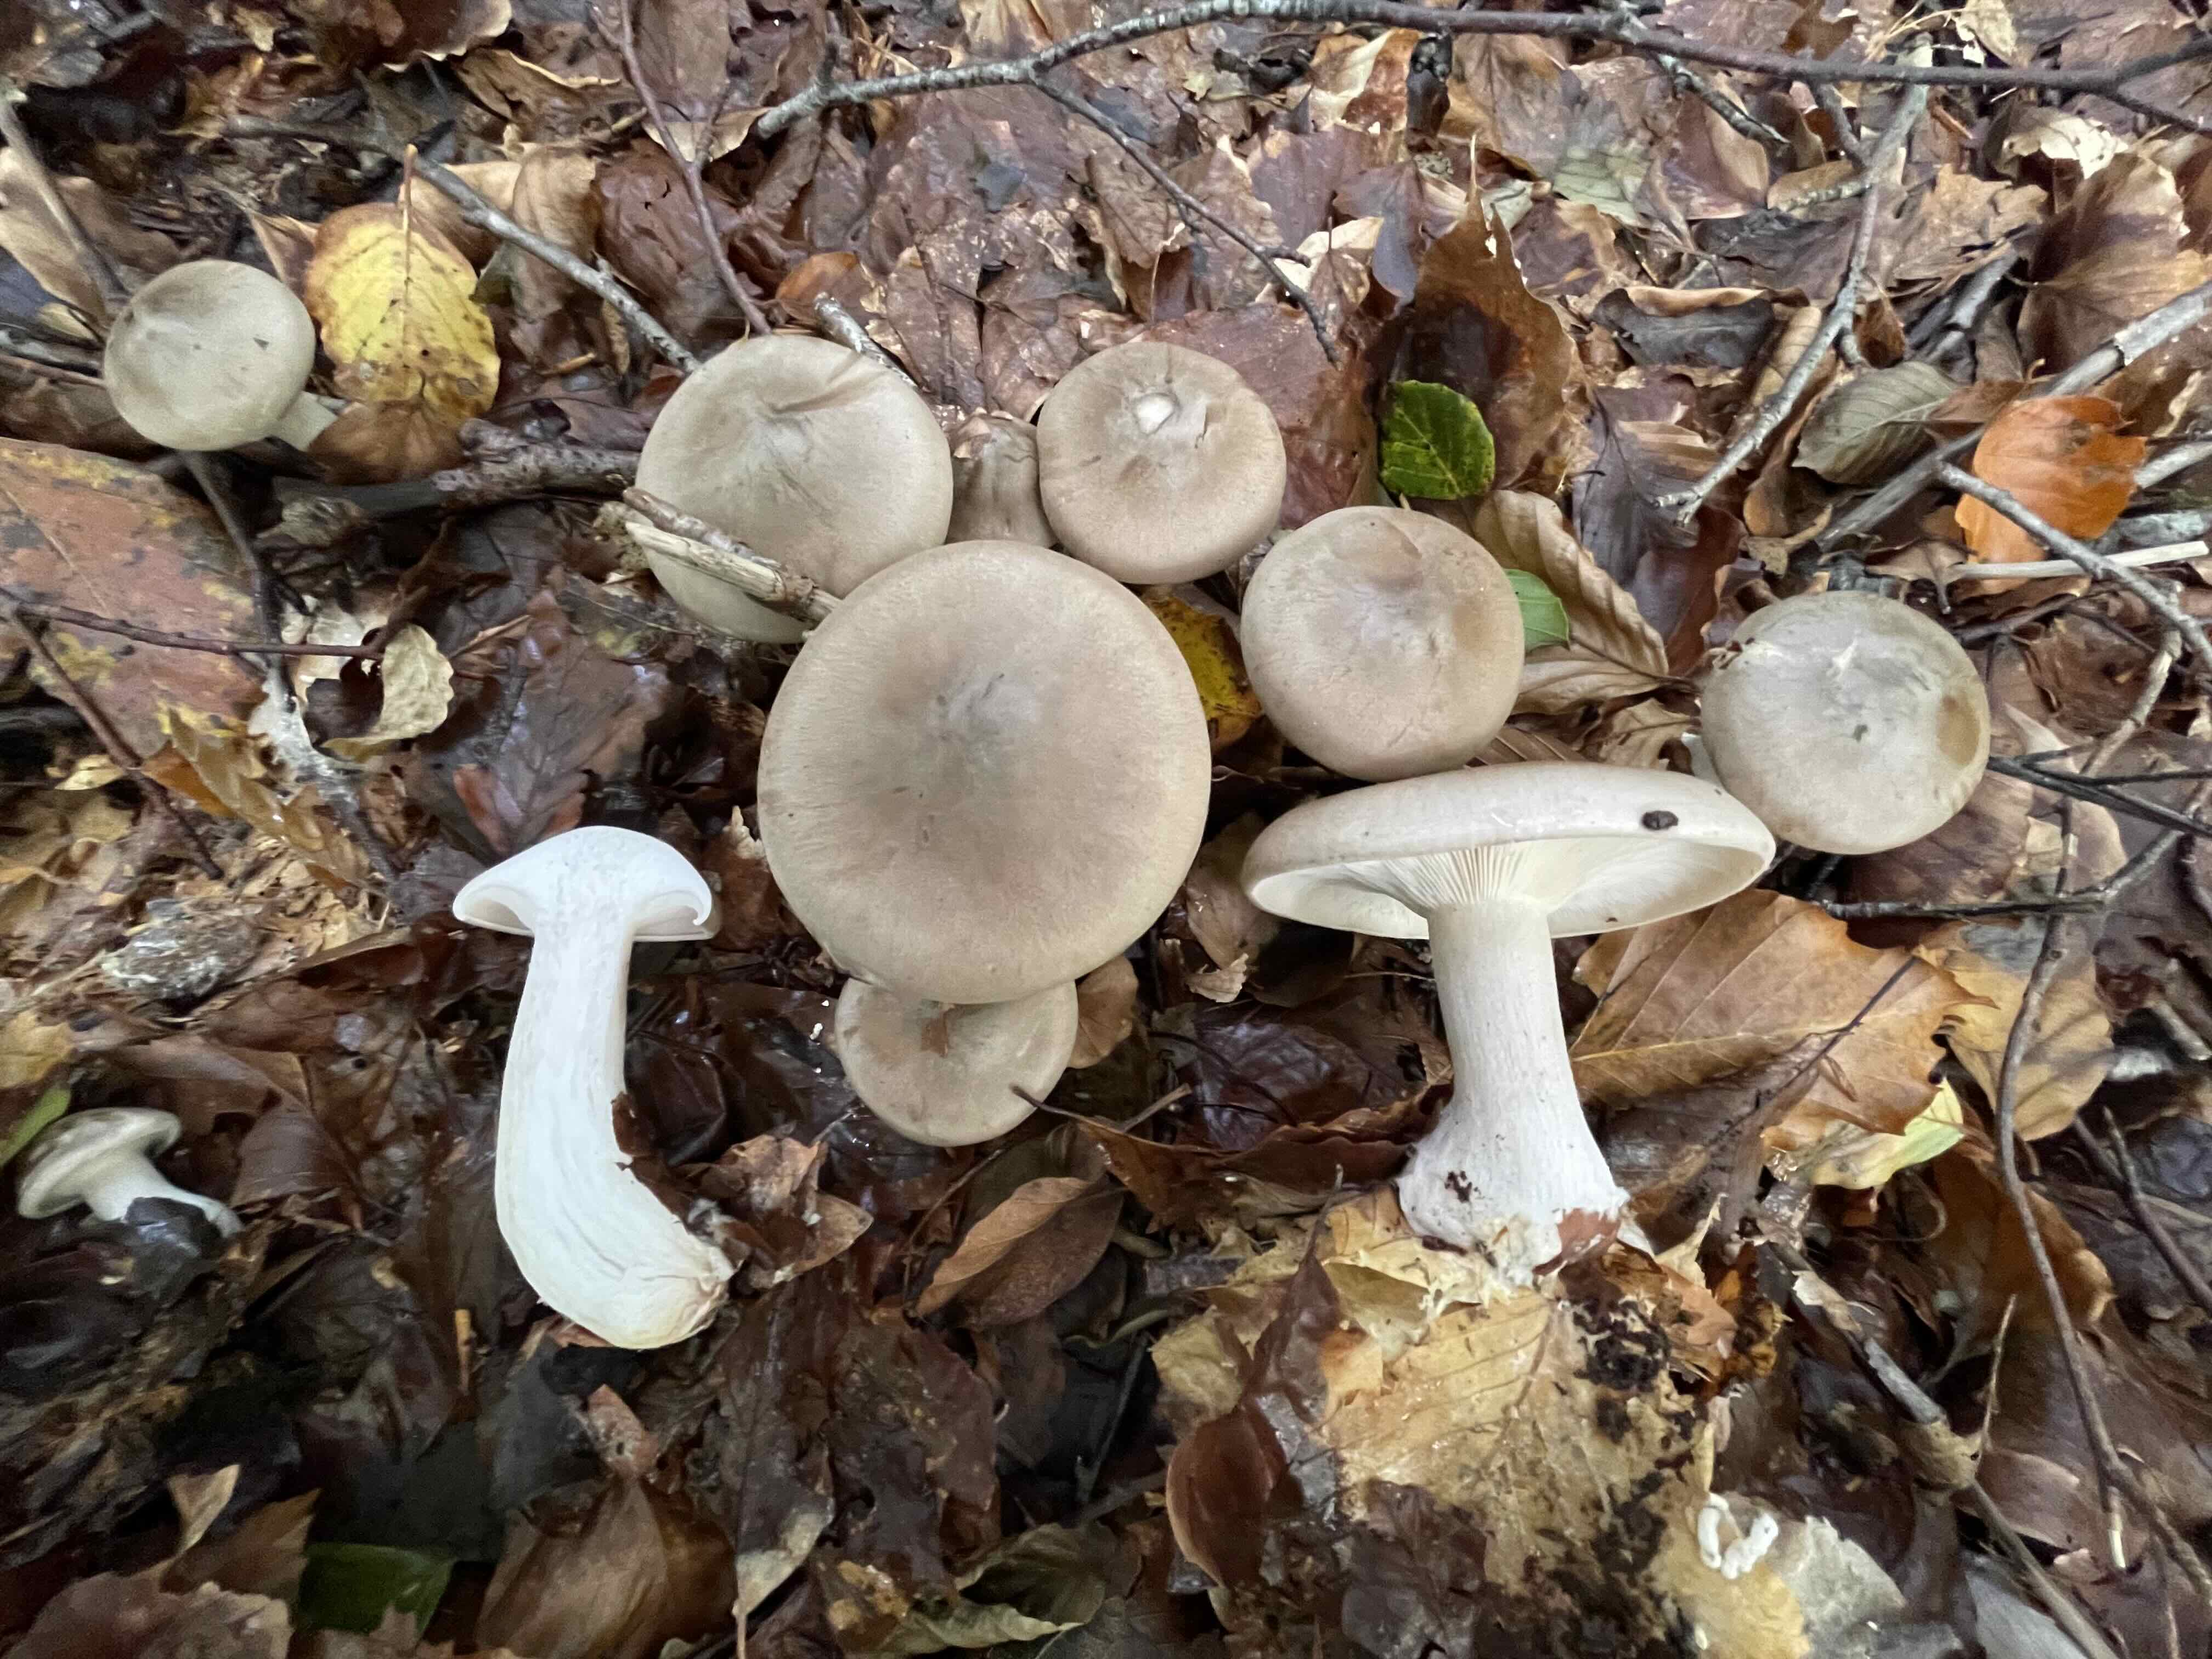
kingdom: Fungi
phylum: Basidiomycota
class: Agaricomycetes
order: Agaricales
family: Tricholomataceae
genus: Clitocybe
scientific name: Clitocybe nebularis
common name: tåge-tragthat
